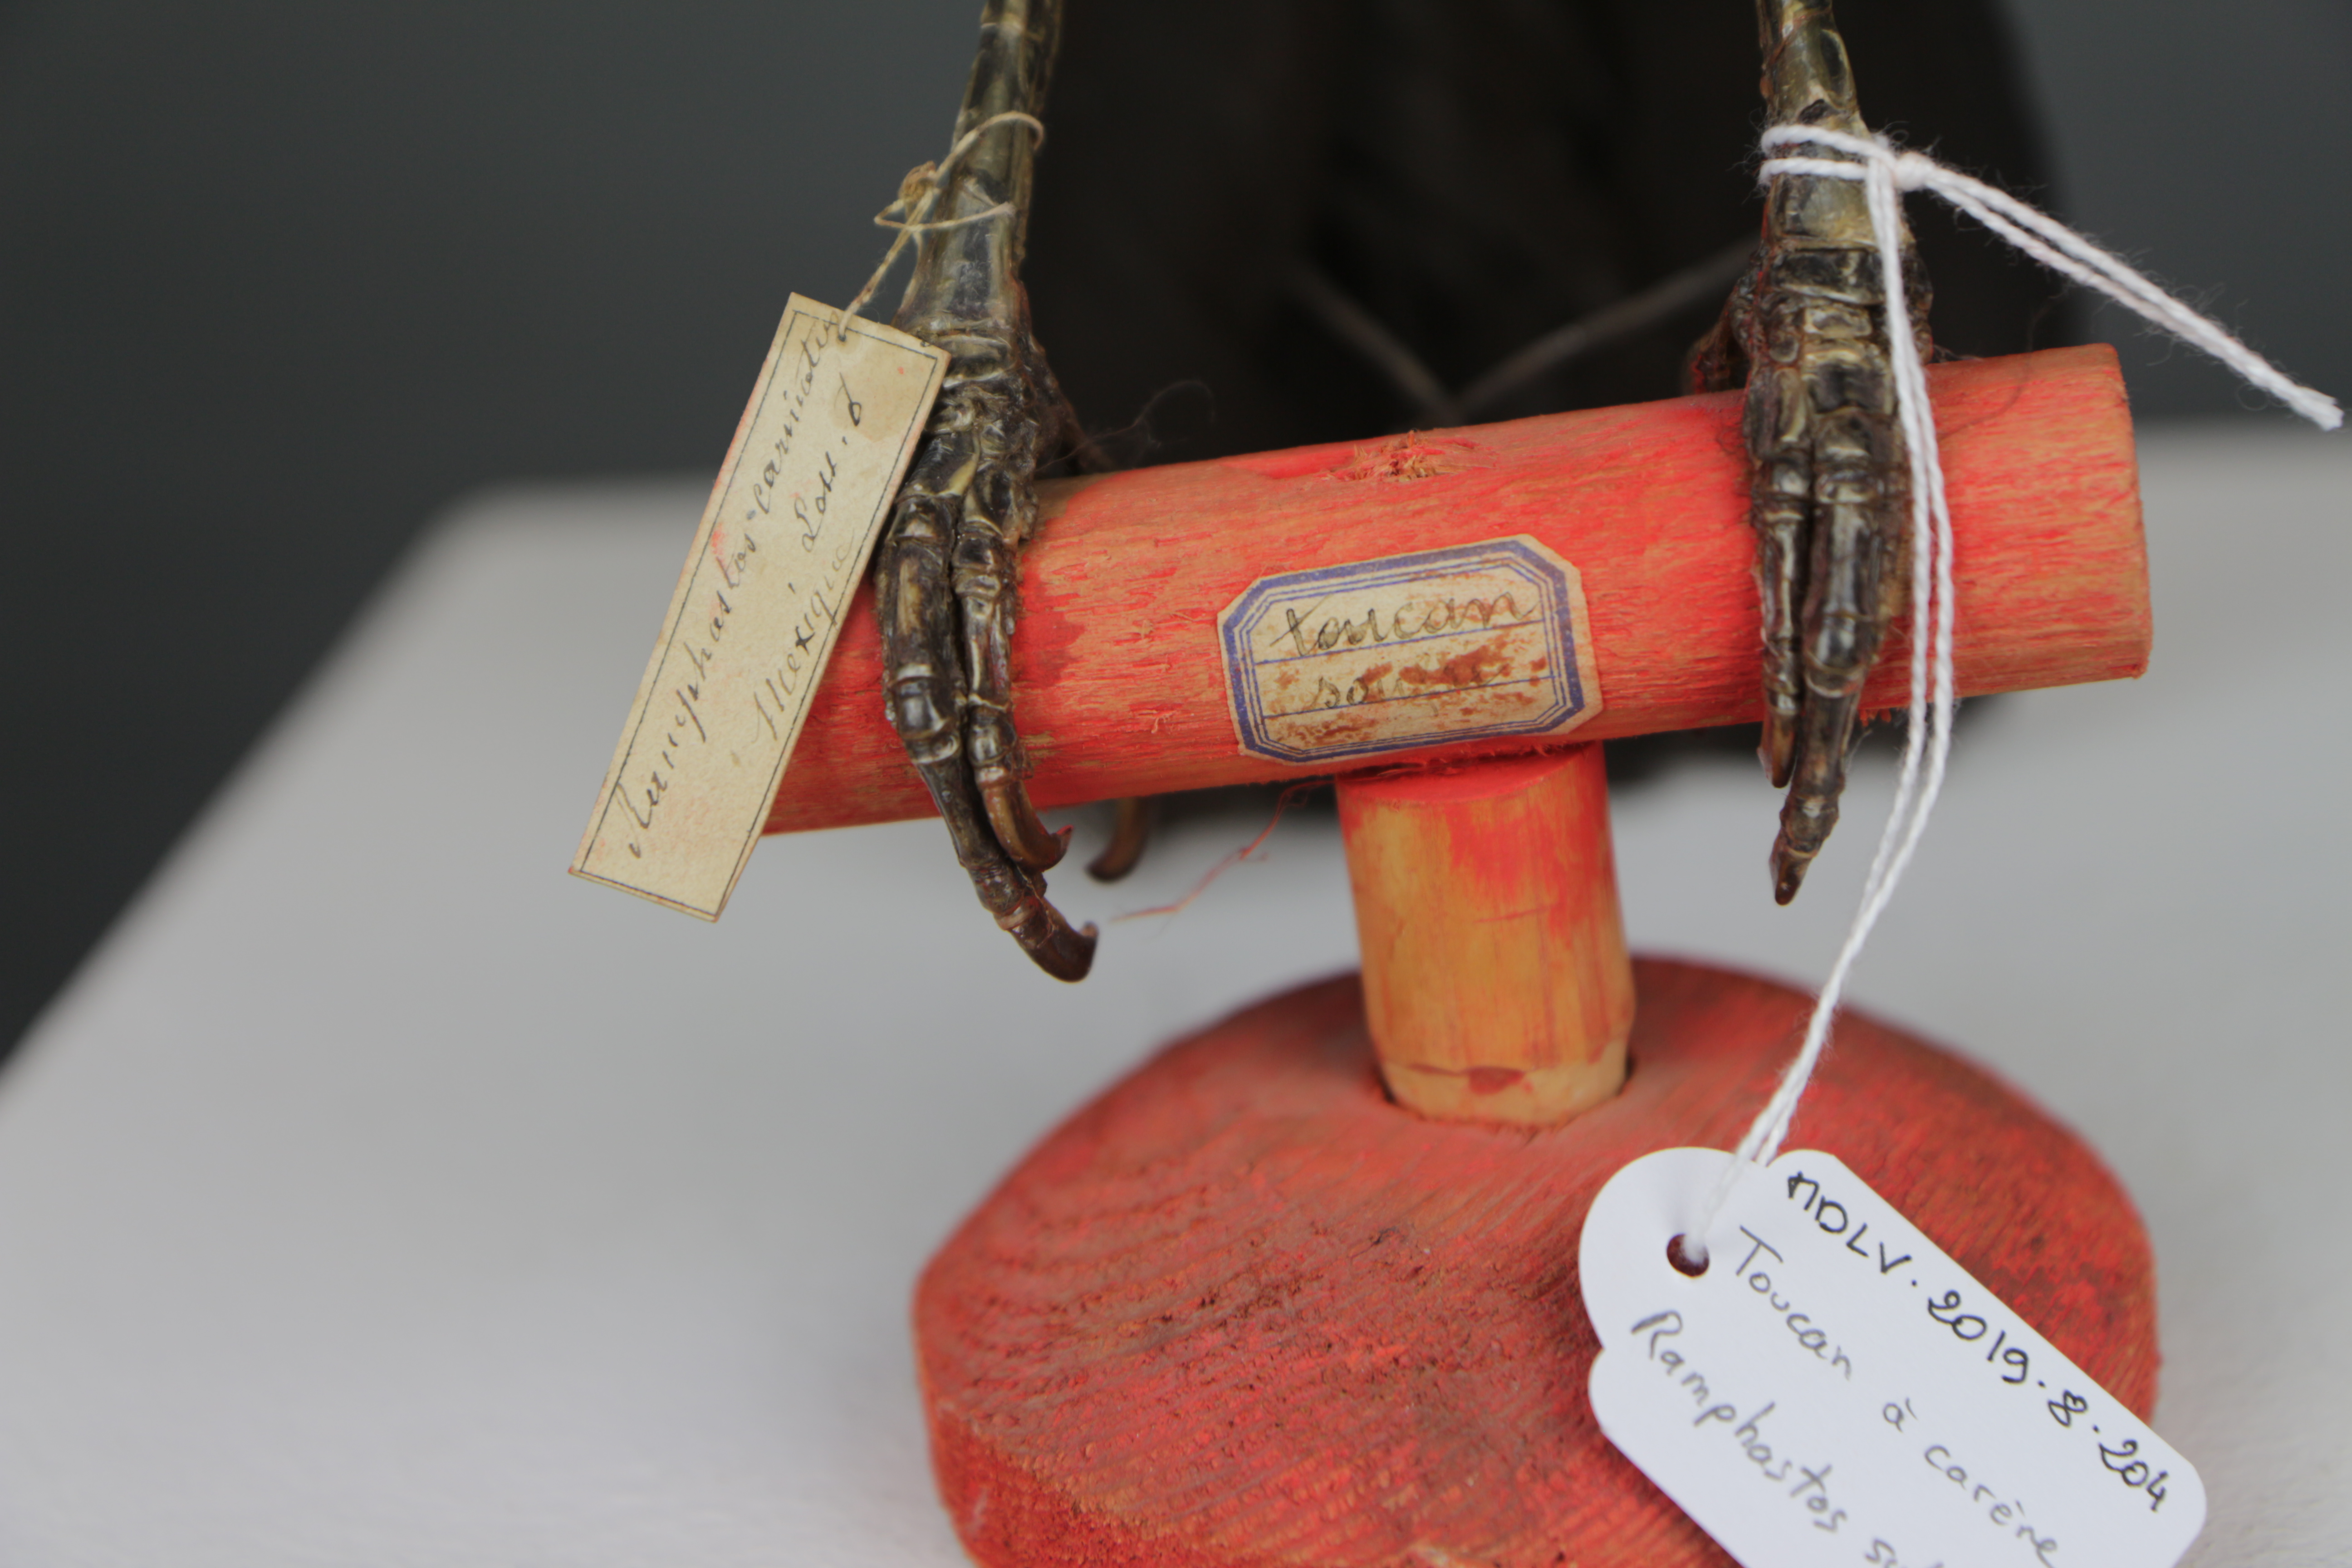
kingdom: Animalia
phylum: Chordata
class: Aves
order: Piciformes
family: Ramphastidae
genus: Ramphastos
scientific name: Ramphastos sulfuratus
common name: Keel-billed toucan
